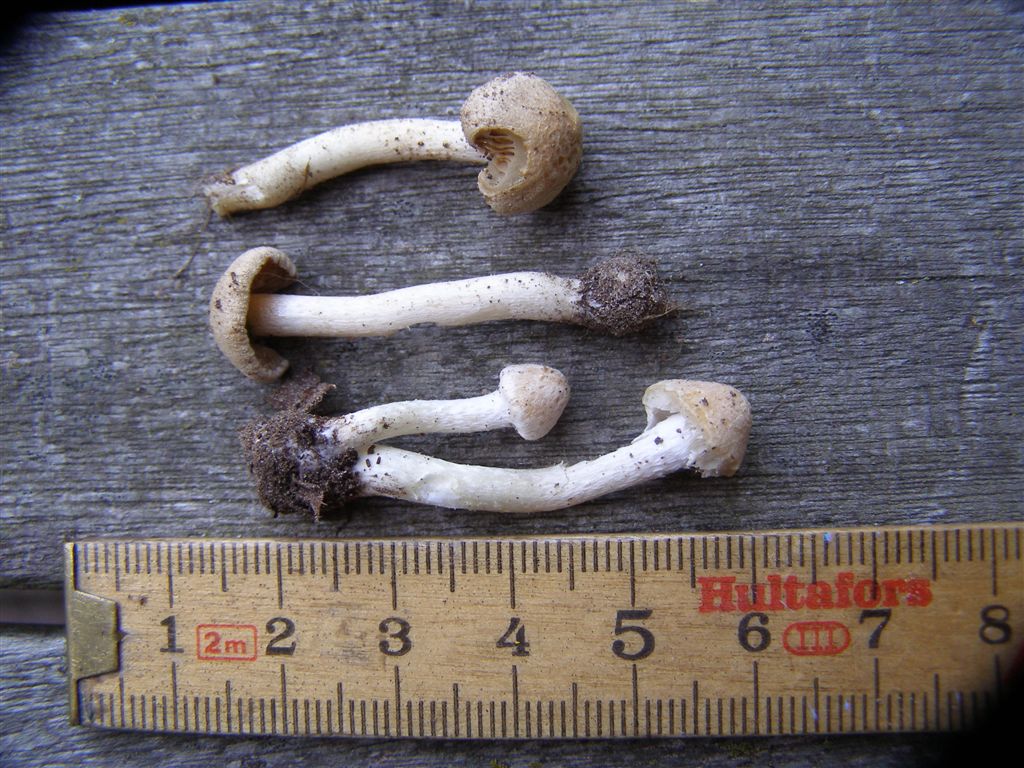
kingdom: Fungi
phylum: Basidiomycota
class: Agaricomycetes
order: Agaricales
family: Inocybaceae
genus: Inocybe
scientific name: Inocybe albovelutipes
